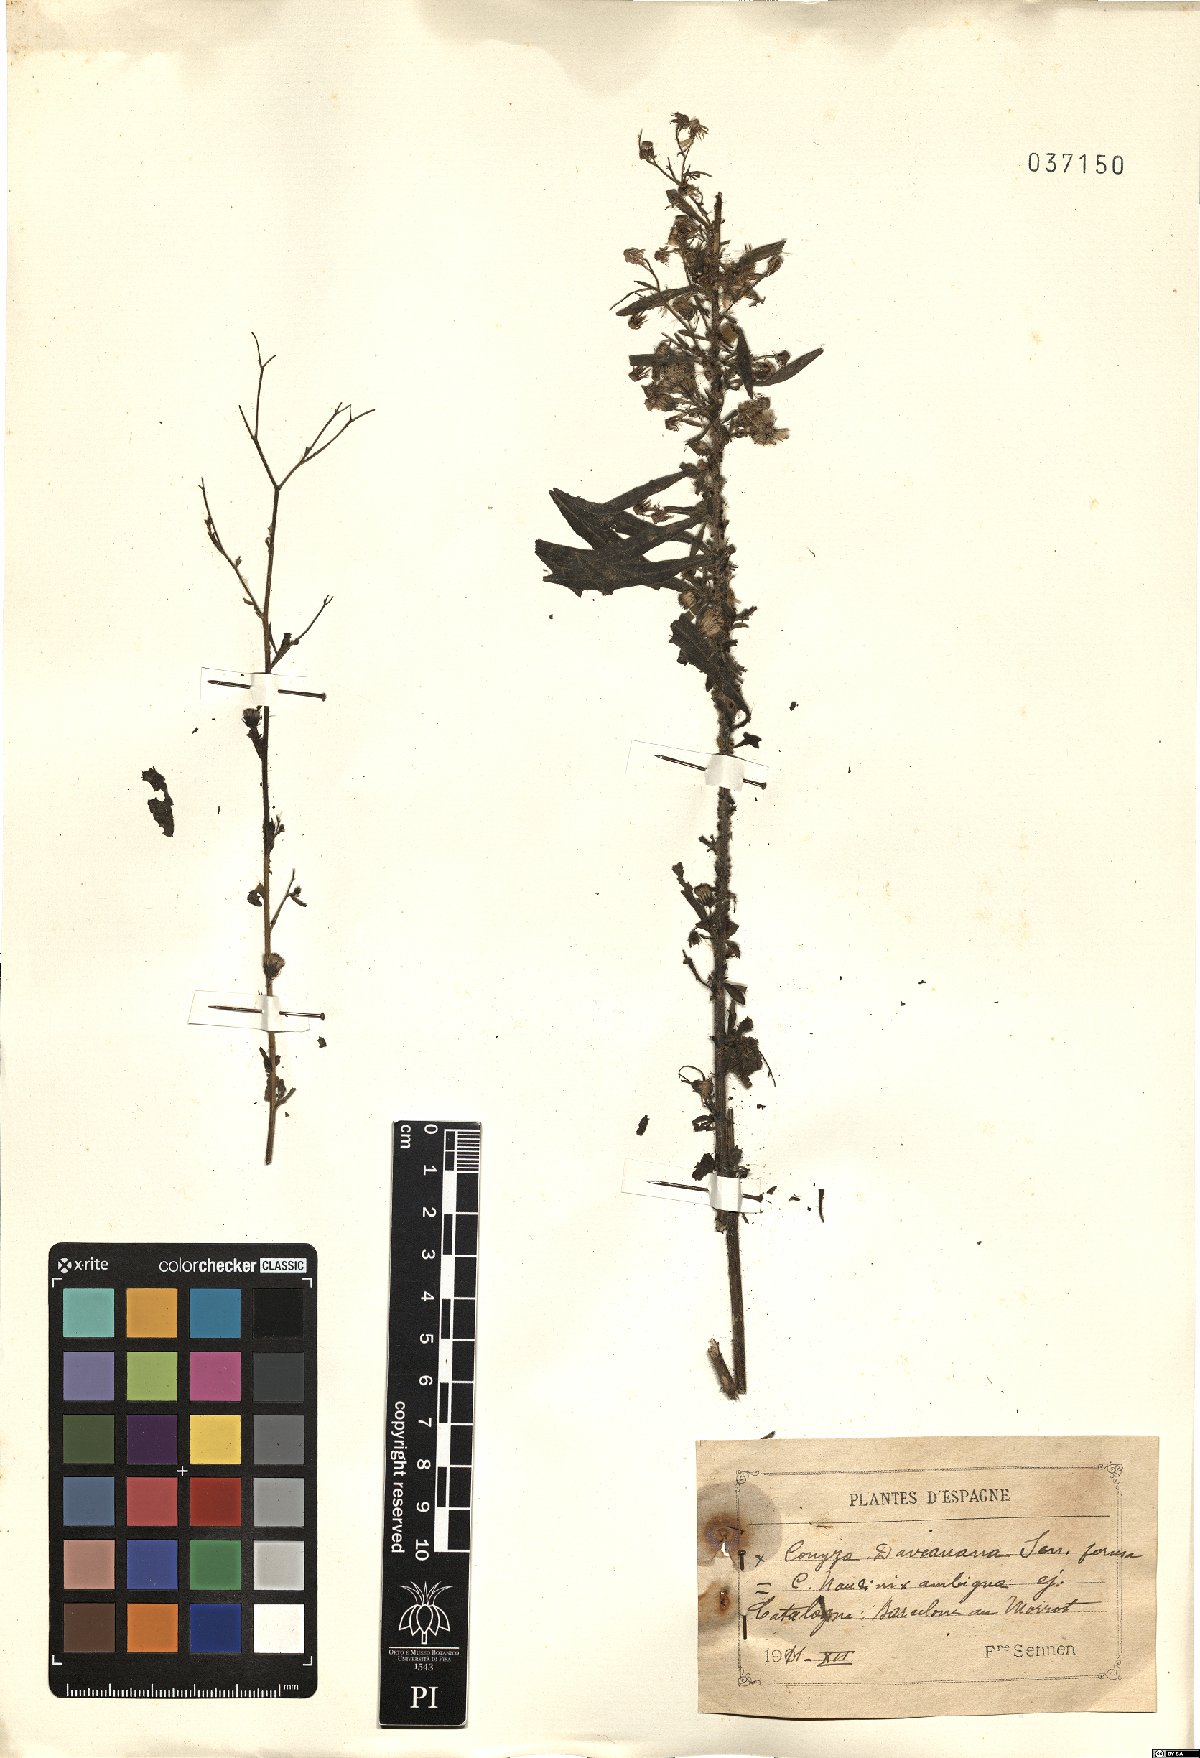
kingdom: Plantae
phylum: Tracheophyta
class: Magnoliopsida
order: Asterales
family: Asteraceae
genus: Erigeron
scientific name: Erigeron daveauanus
